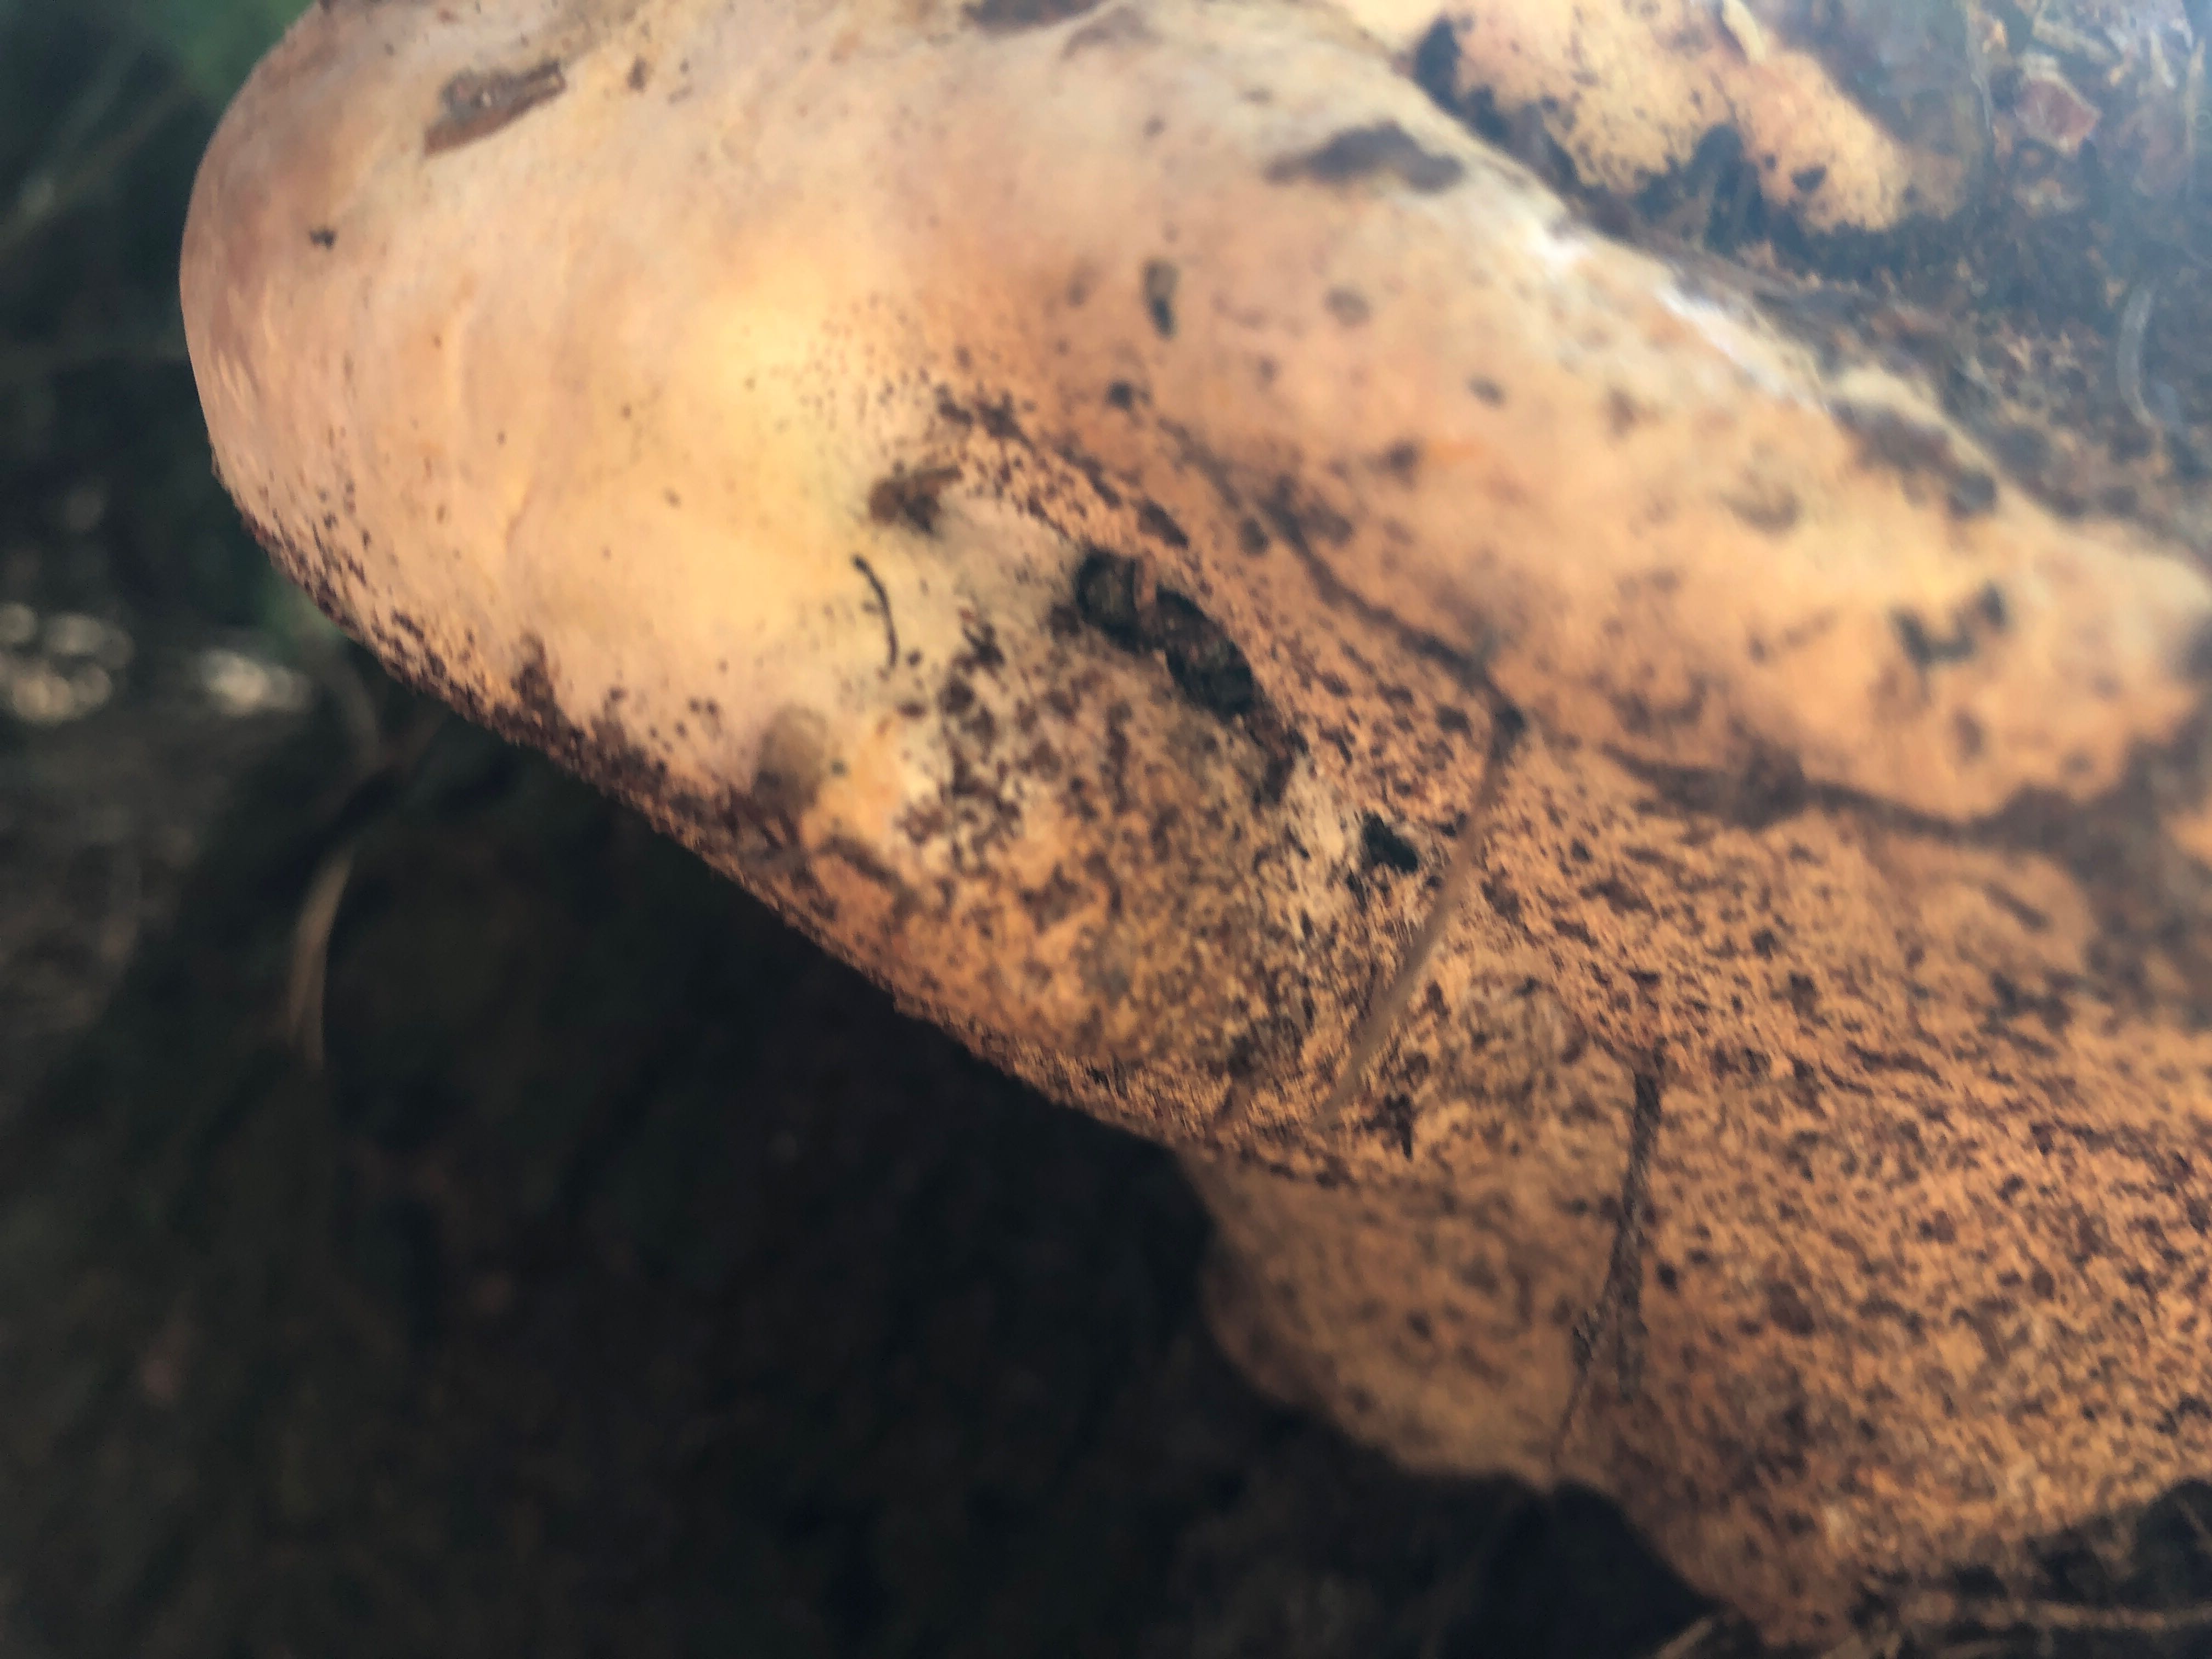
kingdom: Fungi
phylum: Basidiomycota
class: Agaricomycetes
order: Polyporales
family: Fomitopsidaceae
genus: Fomitopsis
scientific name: Fomitopsis pinicola
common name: randbæltet hovporesvamp
